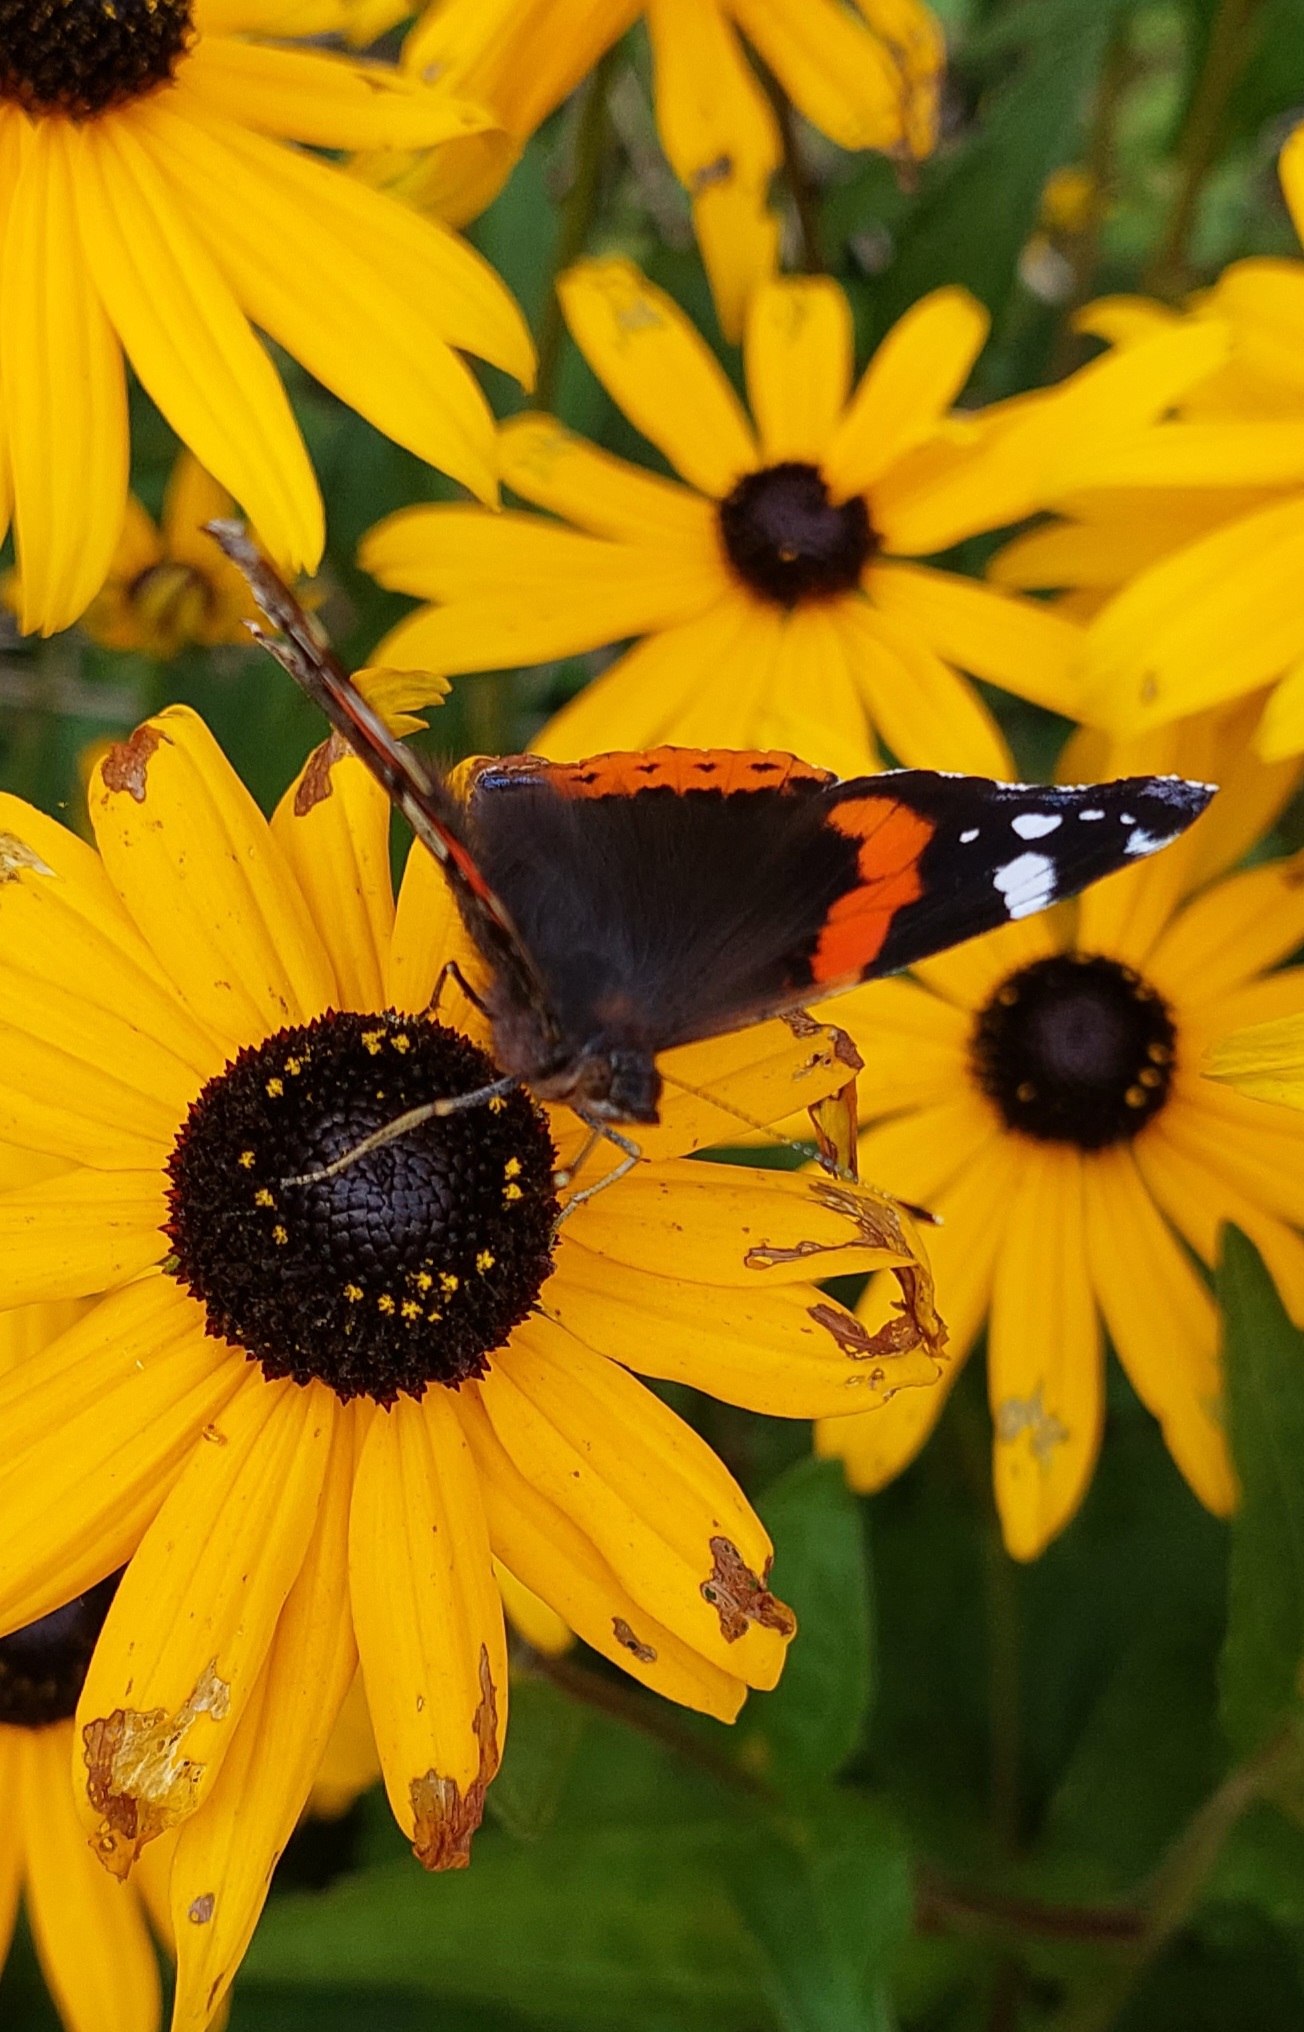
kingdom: Animalia
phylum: Arthropoda
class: Insecta
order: Lepidoptera
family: Nymphalidae
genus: Vanessa
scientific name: Vanessa atalanta
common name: Admiral
